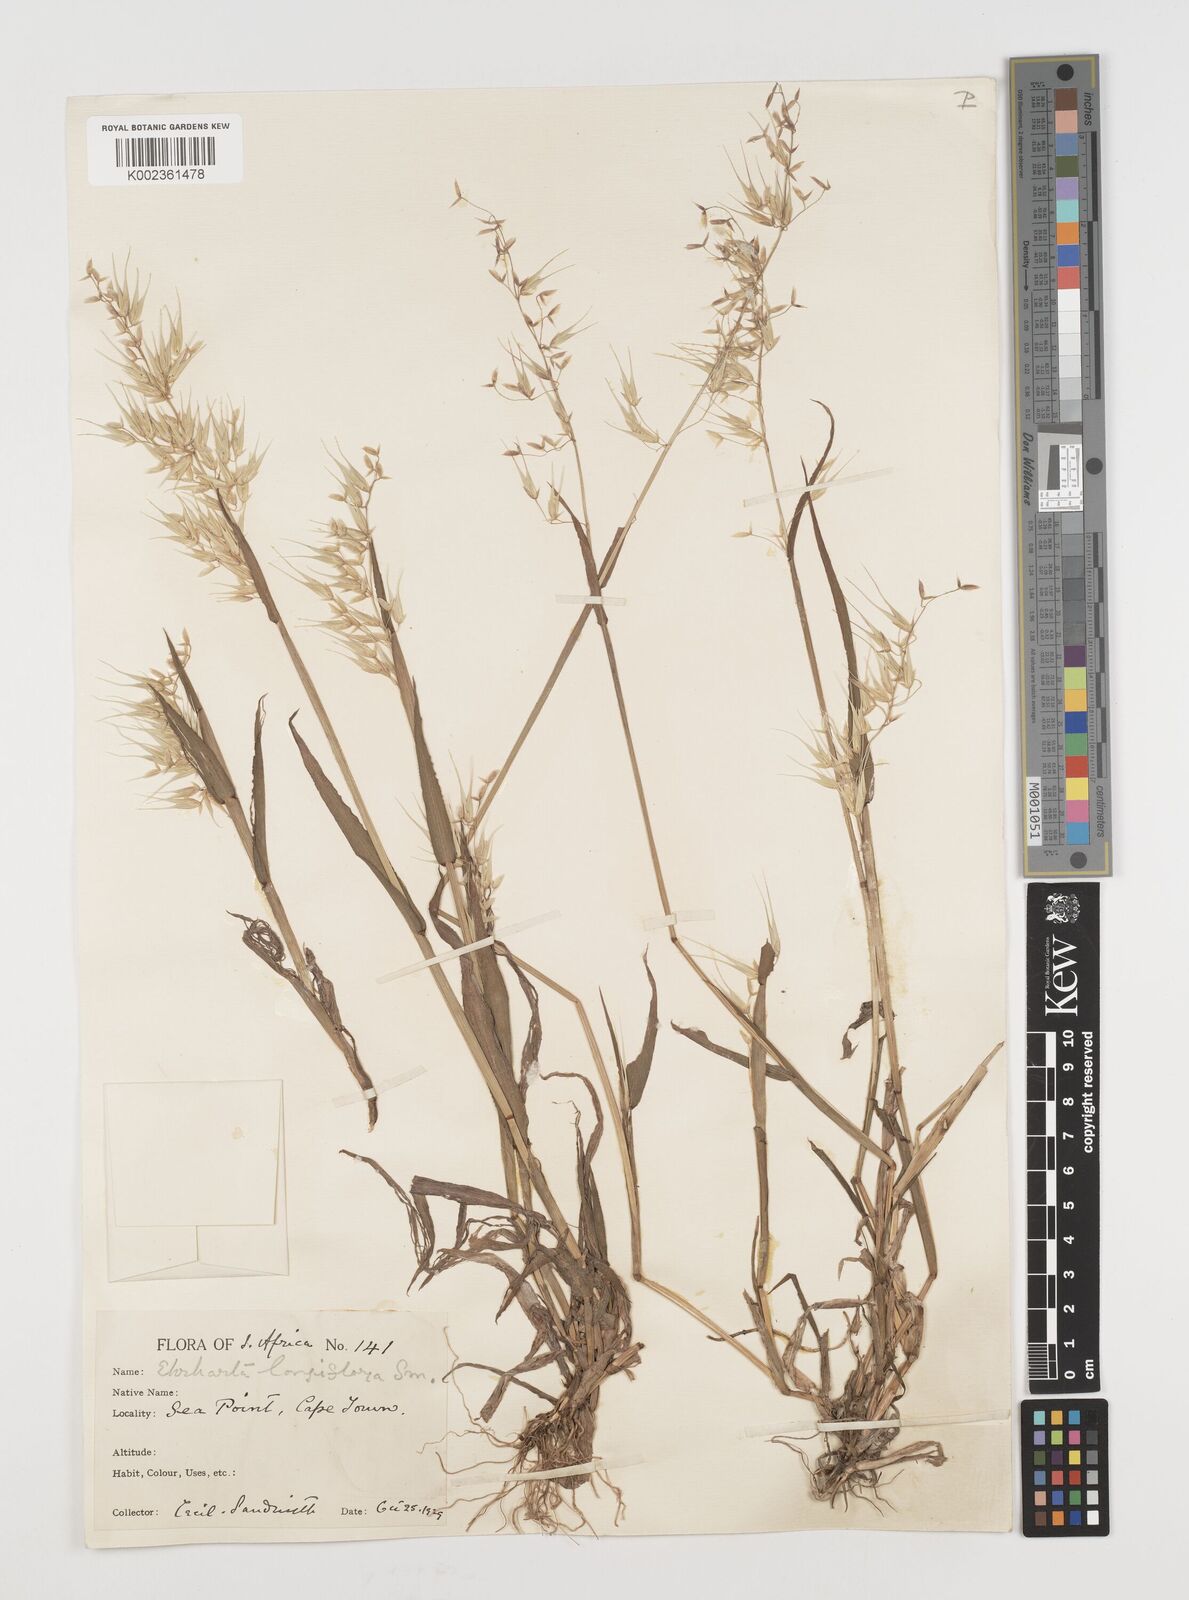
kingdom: Plantae
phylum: Tracheophyta
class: Liliopsida
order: Poales
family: Poaceae
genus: Ehrharta
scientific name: Ehrharta longiflora
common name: Longflowered veldtgrass
